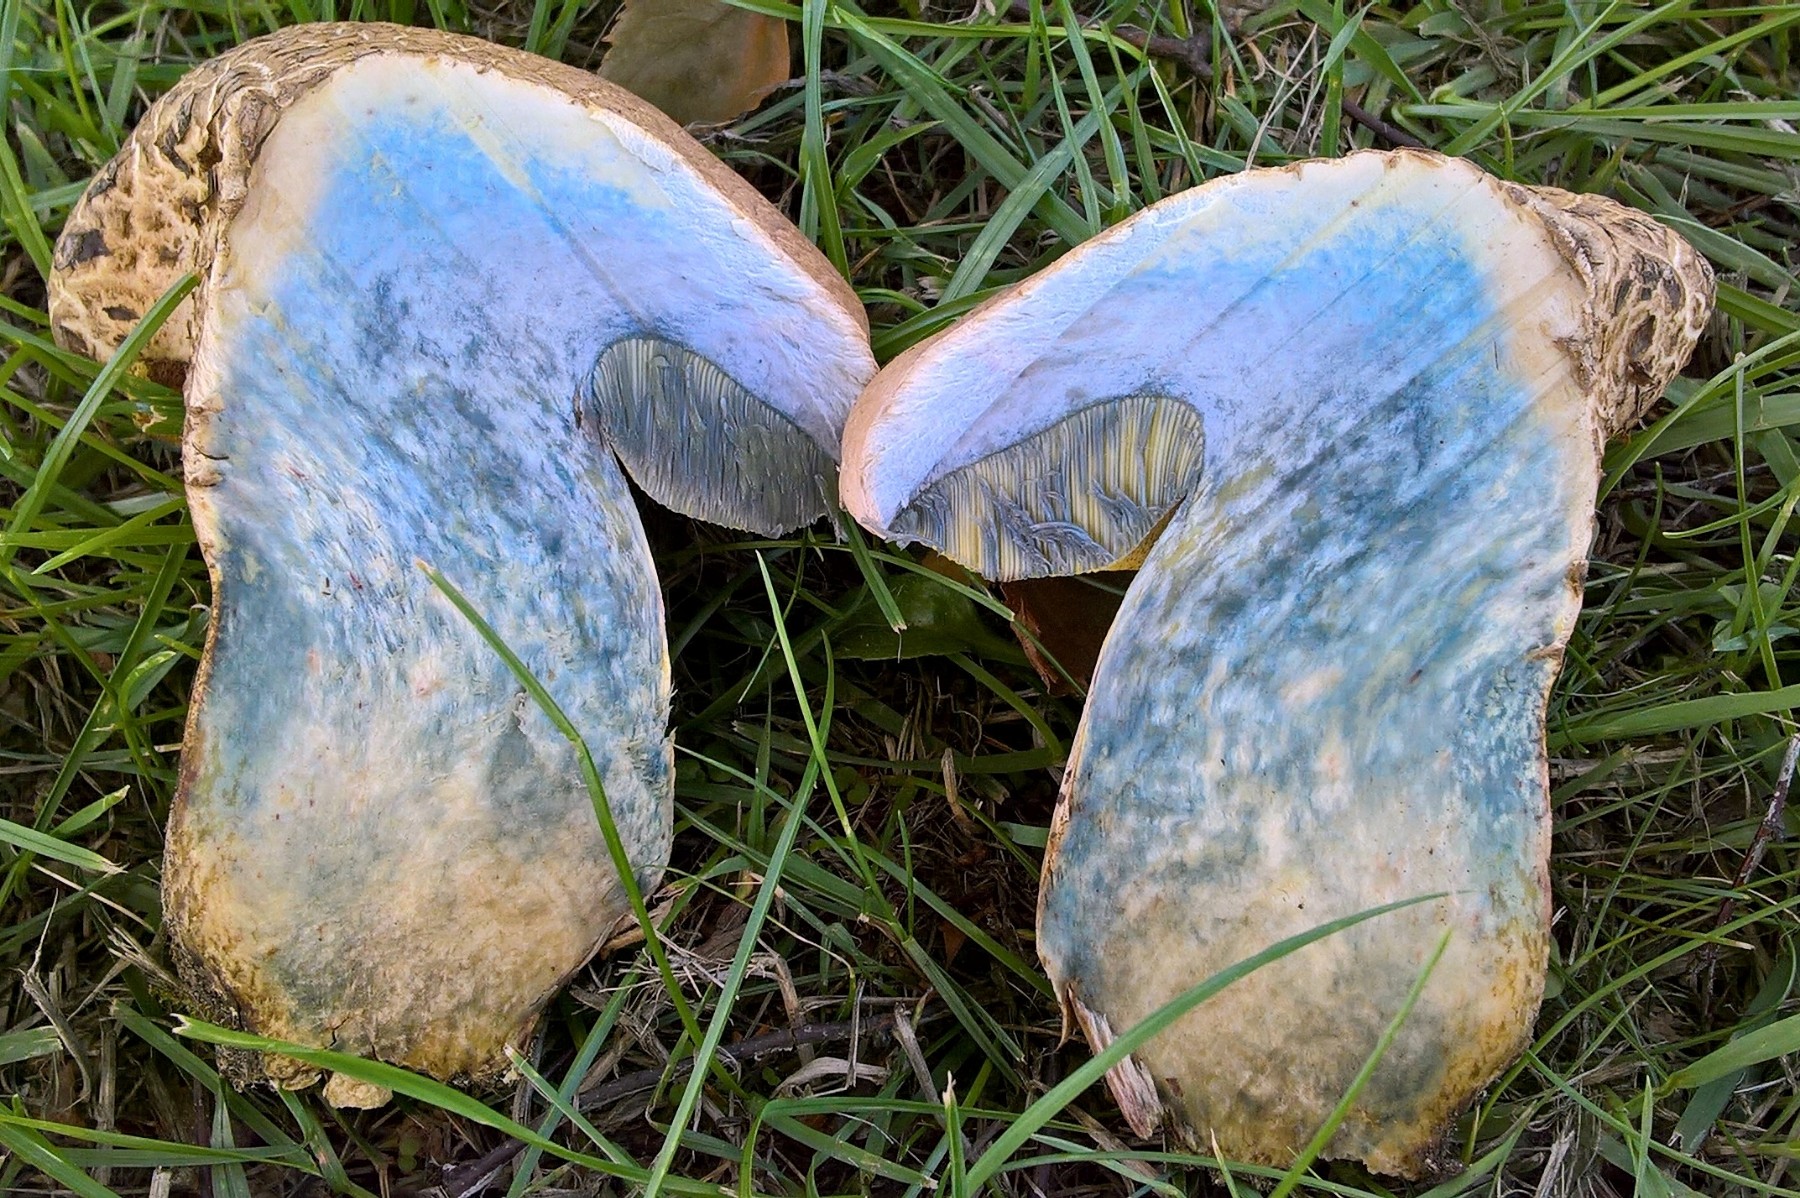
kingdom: Fungi
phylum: Basidiomycota
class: Agaricomycetes
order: Boletales
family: Boletaceae
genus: Caloboletus
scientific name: Caloboletus radicans
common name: rod-rørhat
